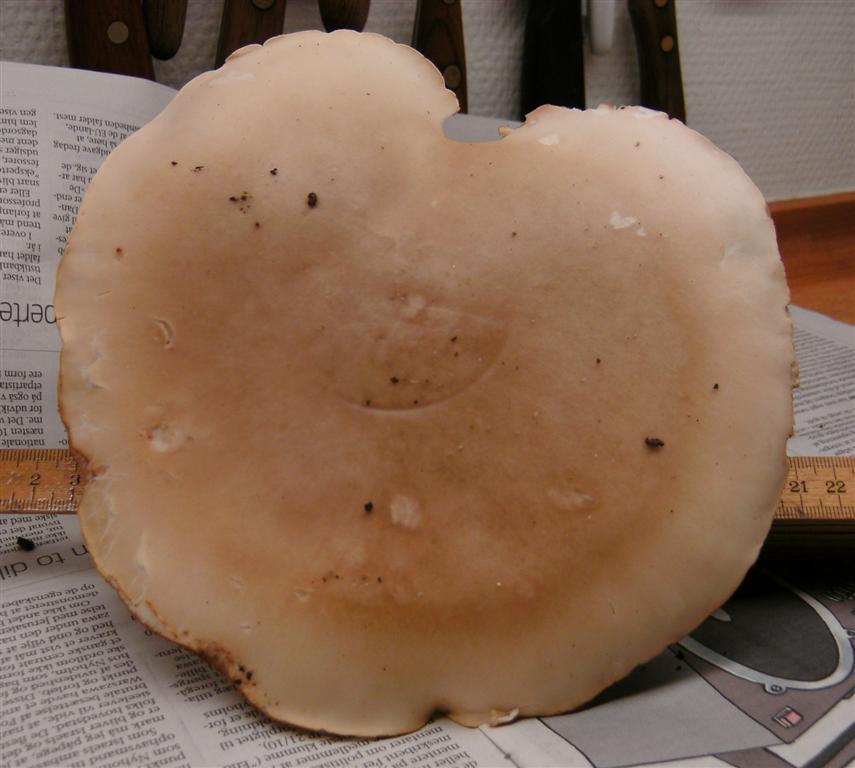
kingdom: Fungi
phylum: Basidiomycota
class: Agaricomycetes
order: Agaricales
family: Tricholomataceae
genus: Lepista
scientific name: Lepista irina
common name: violduftende hekseringshat
